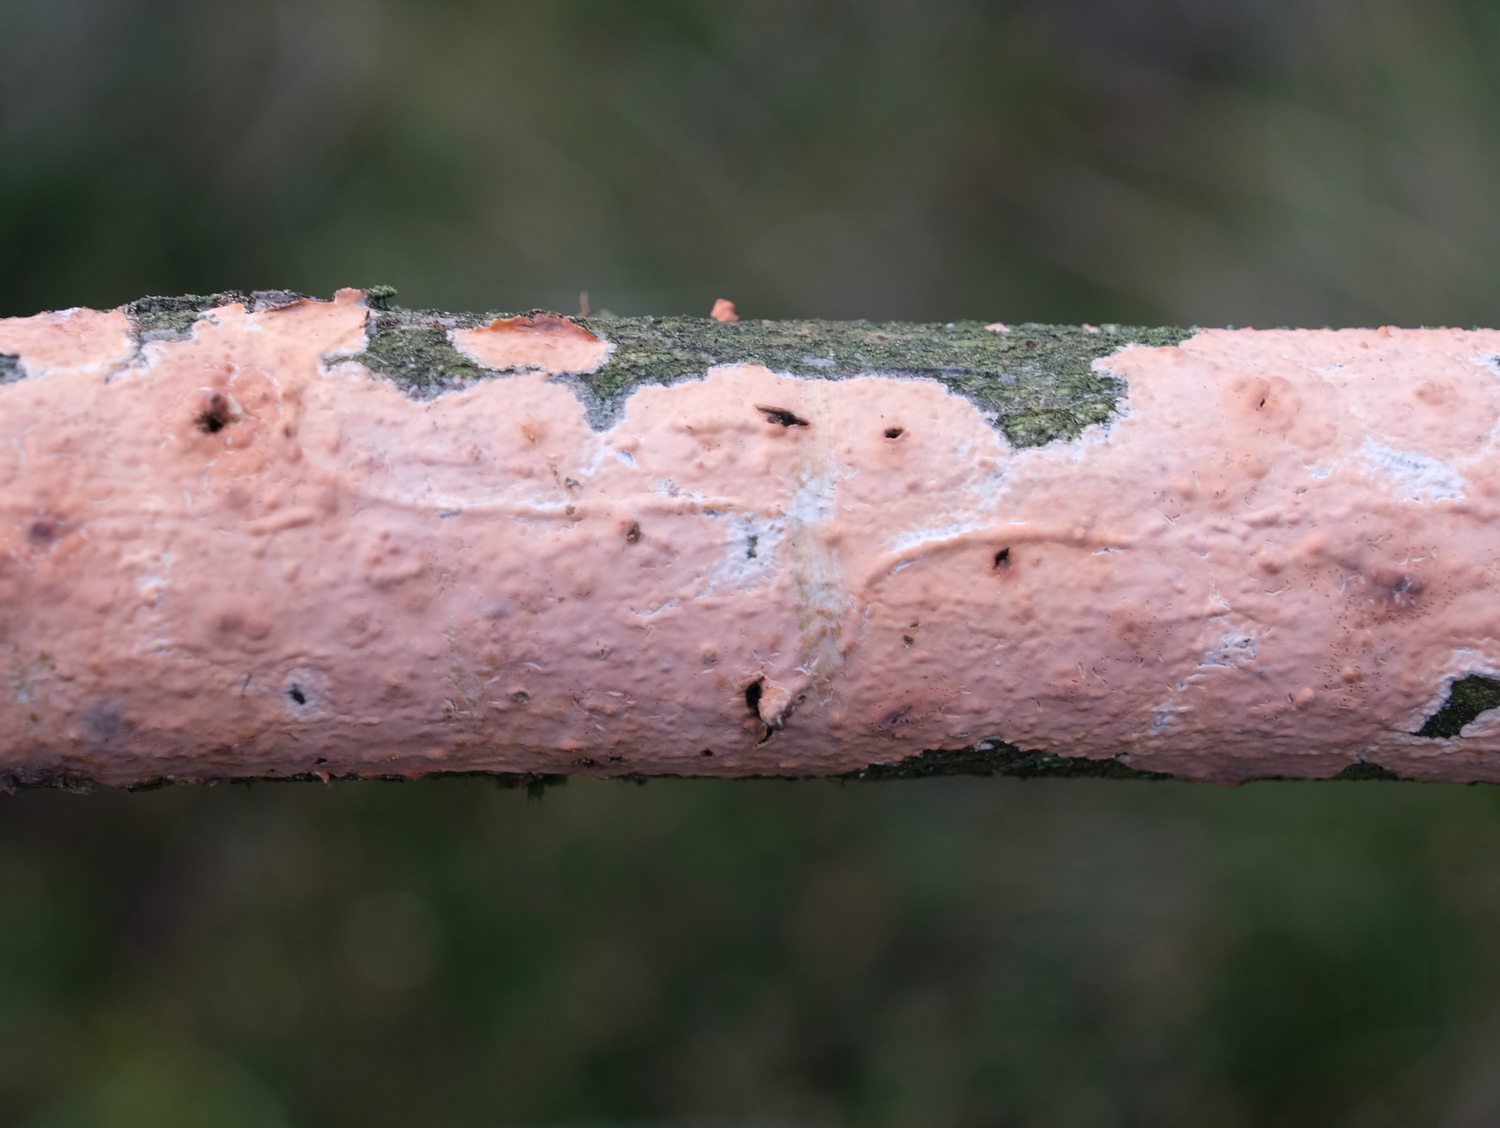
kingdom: Fungi
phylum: Basidiomycota
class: Agaricomycetes
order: Russulales
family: Peniophoraceae
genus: Peniophora
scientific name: Peniophora incarnata
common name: laksefarvet voksskind
